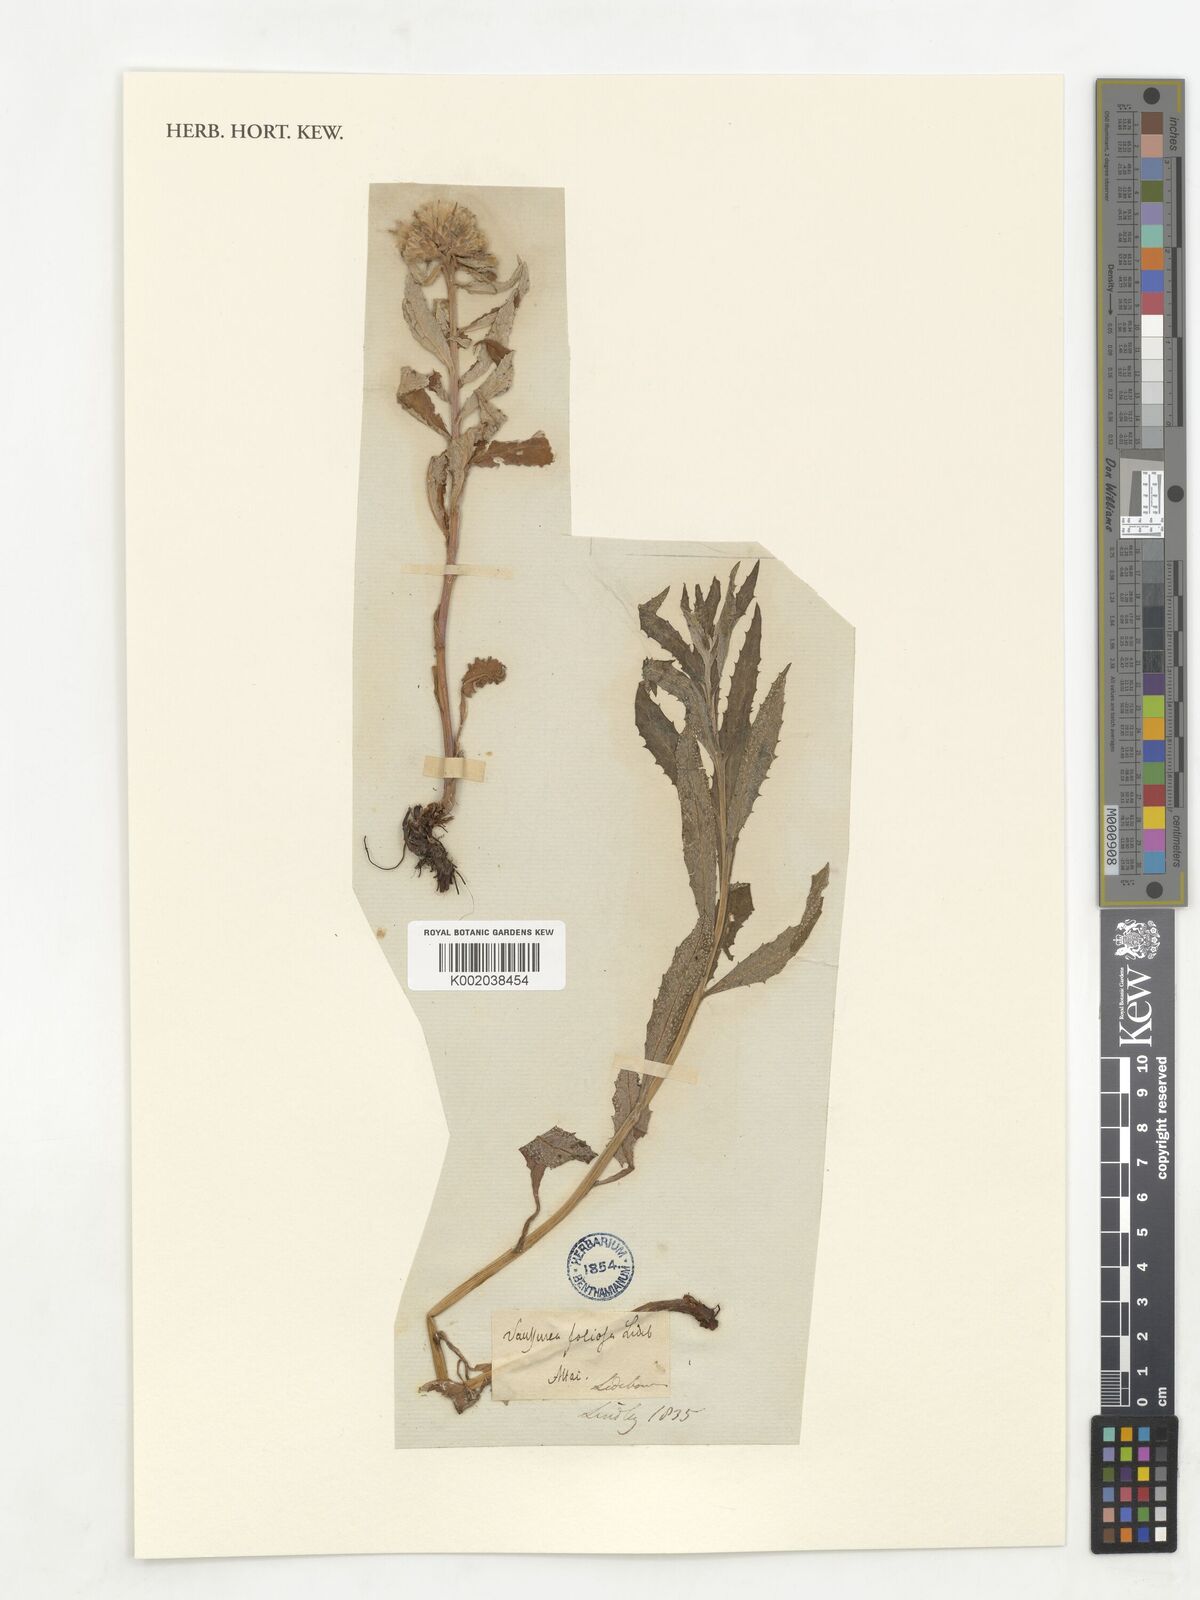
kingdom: Plantae
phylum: Tracheophyta
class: Magnoliopsida
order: Asterales
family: Asteraceae
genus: Saussurea
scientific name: Saussurea foliosa
